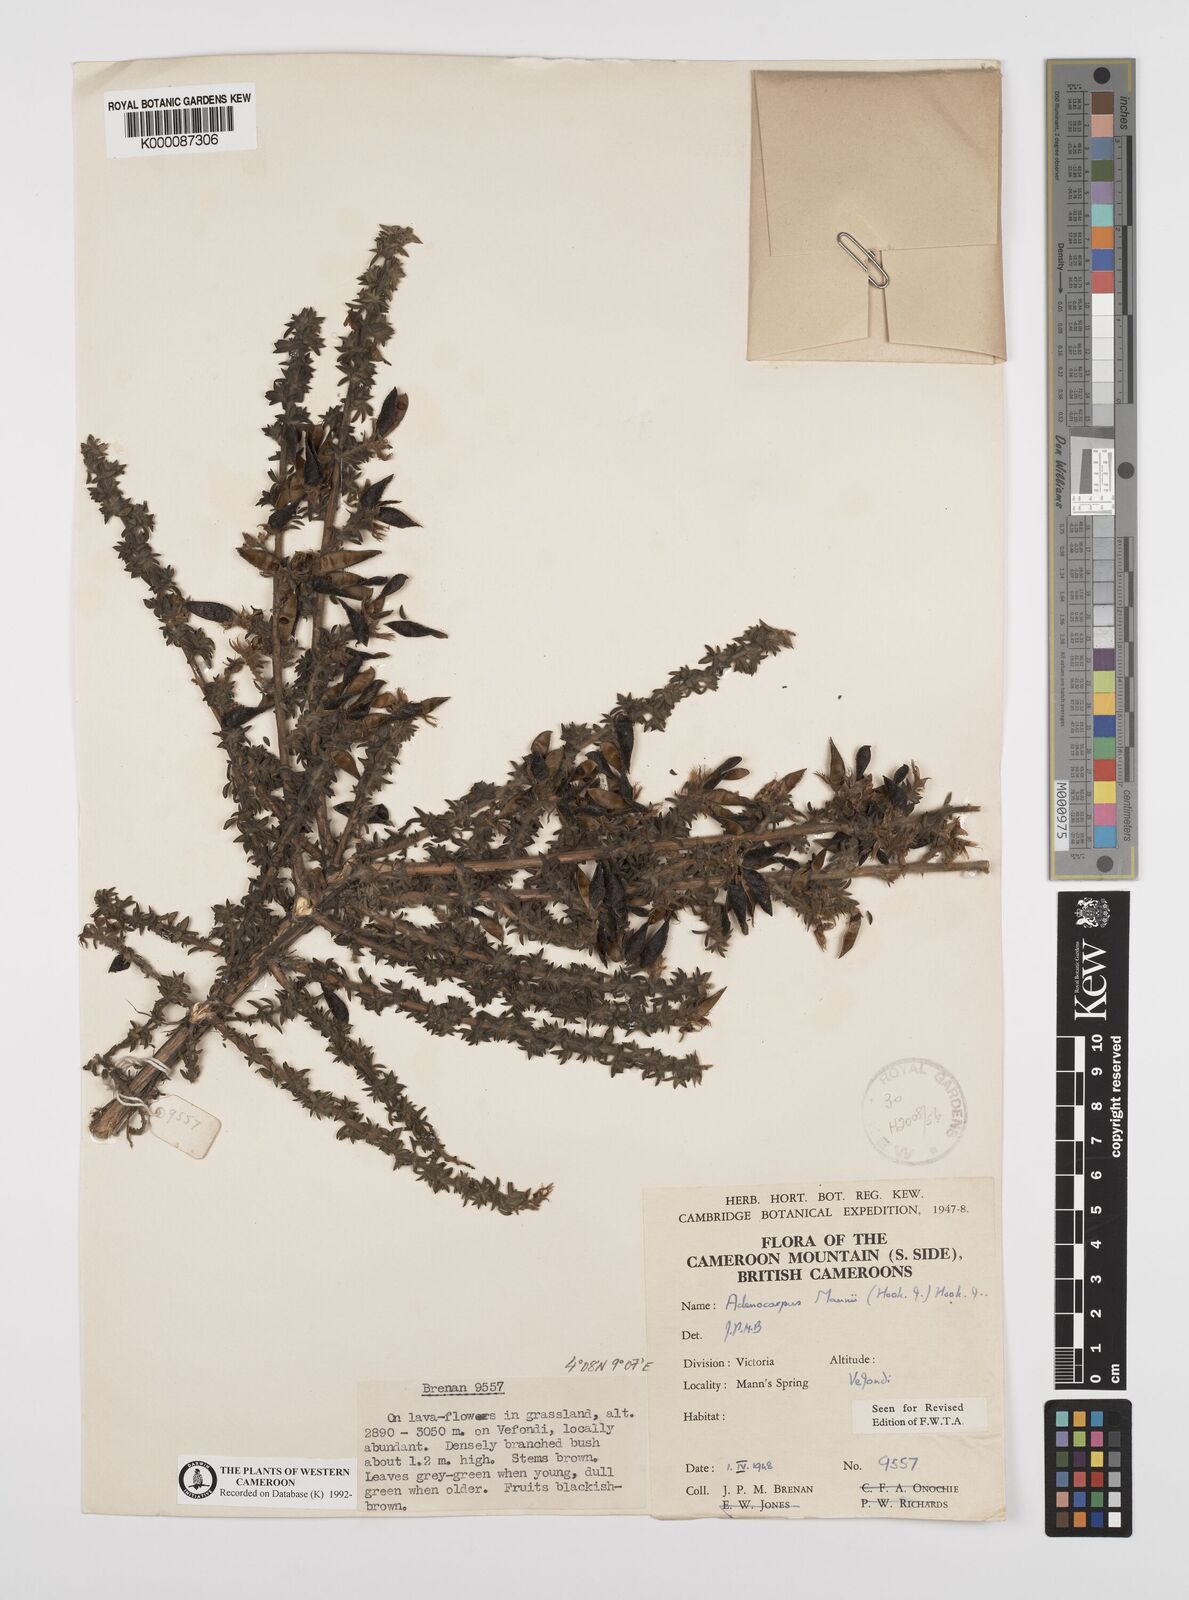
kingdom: Plantae
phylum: Tracheophyta
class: Magnoliopsida
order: Fabales
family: Fabaceae
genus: Adenocarpus
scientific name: Adenocarpus mannii
